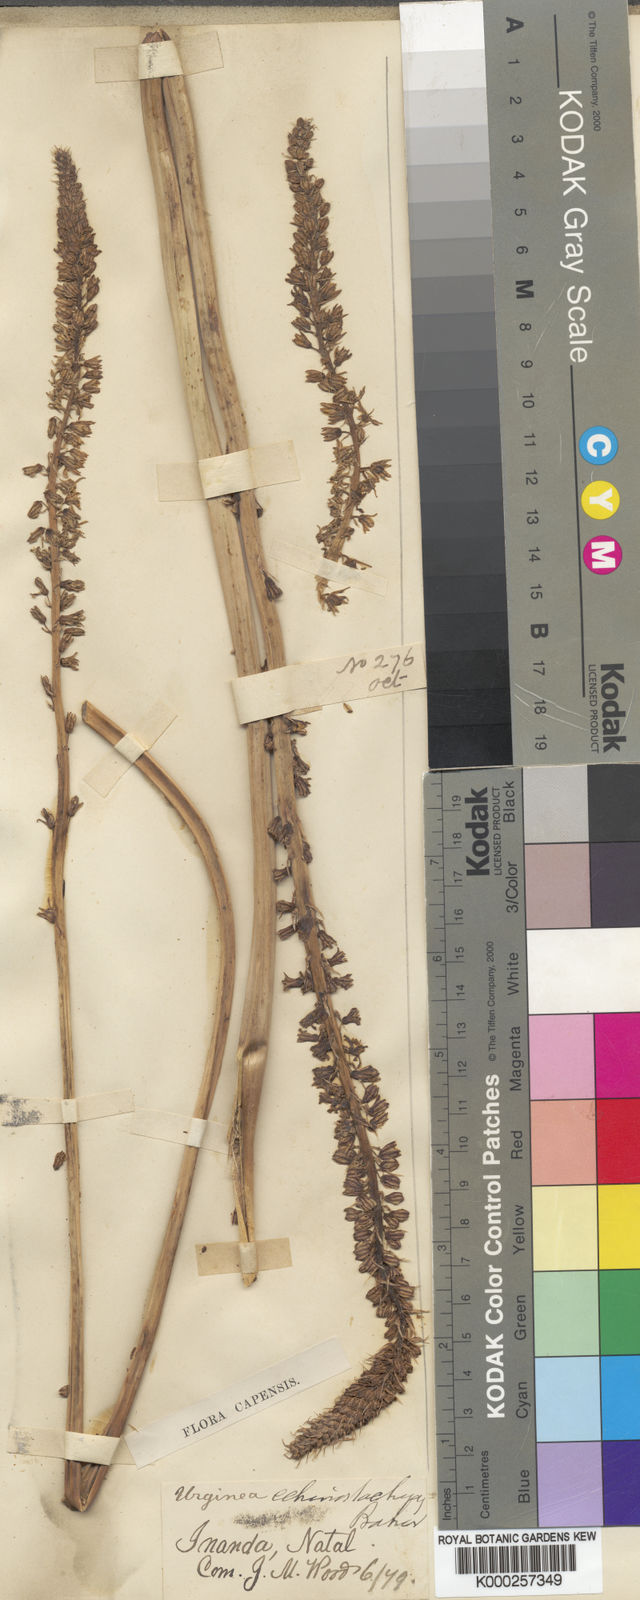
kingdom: Plantae
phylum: Tracheophyta
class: Liliopsida
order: Asparagales
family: Asparagaceae
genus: Drimia
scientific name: Drimia echinostachya
